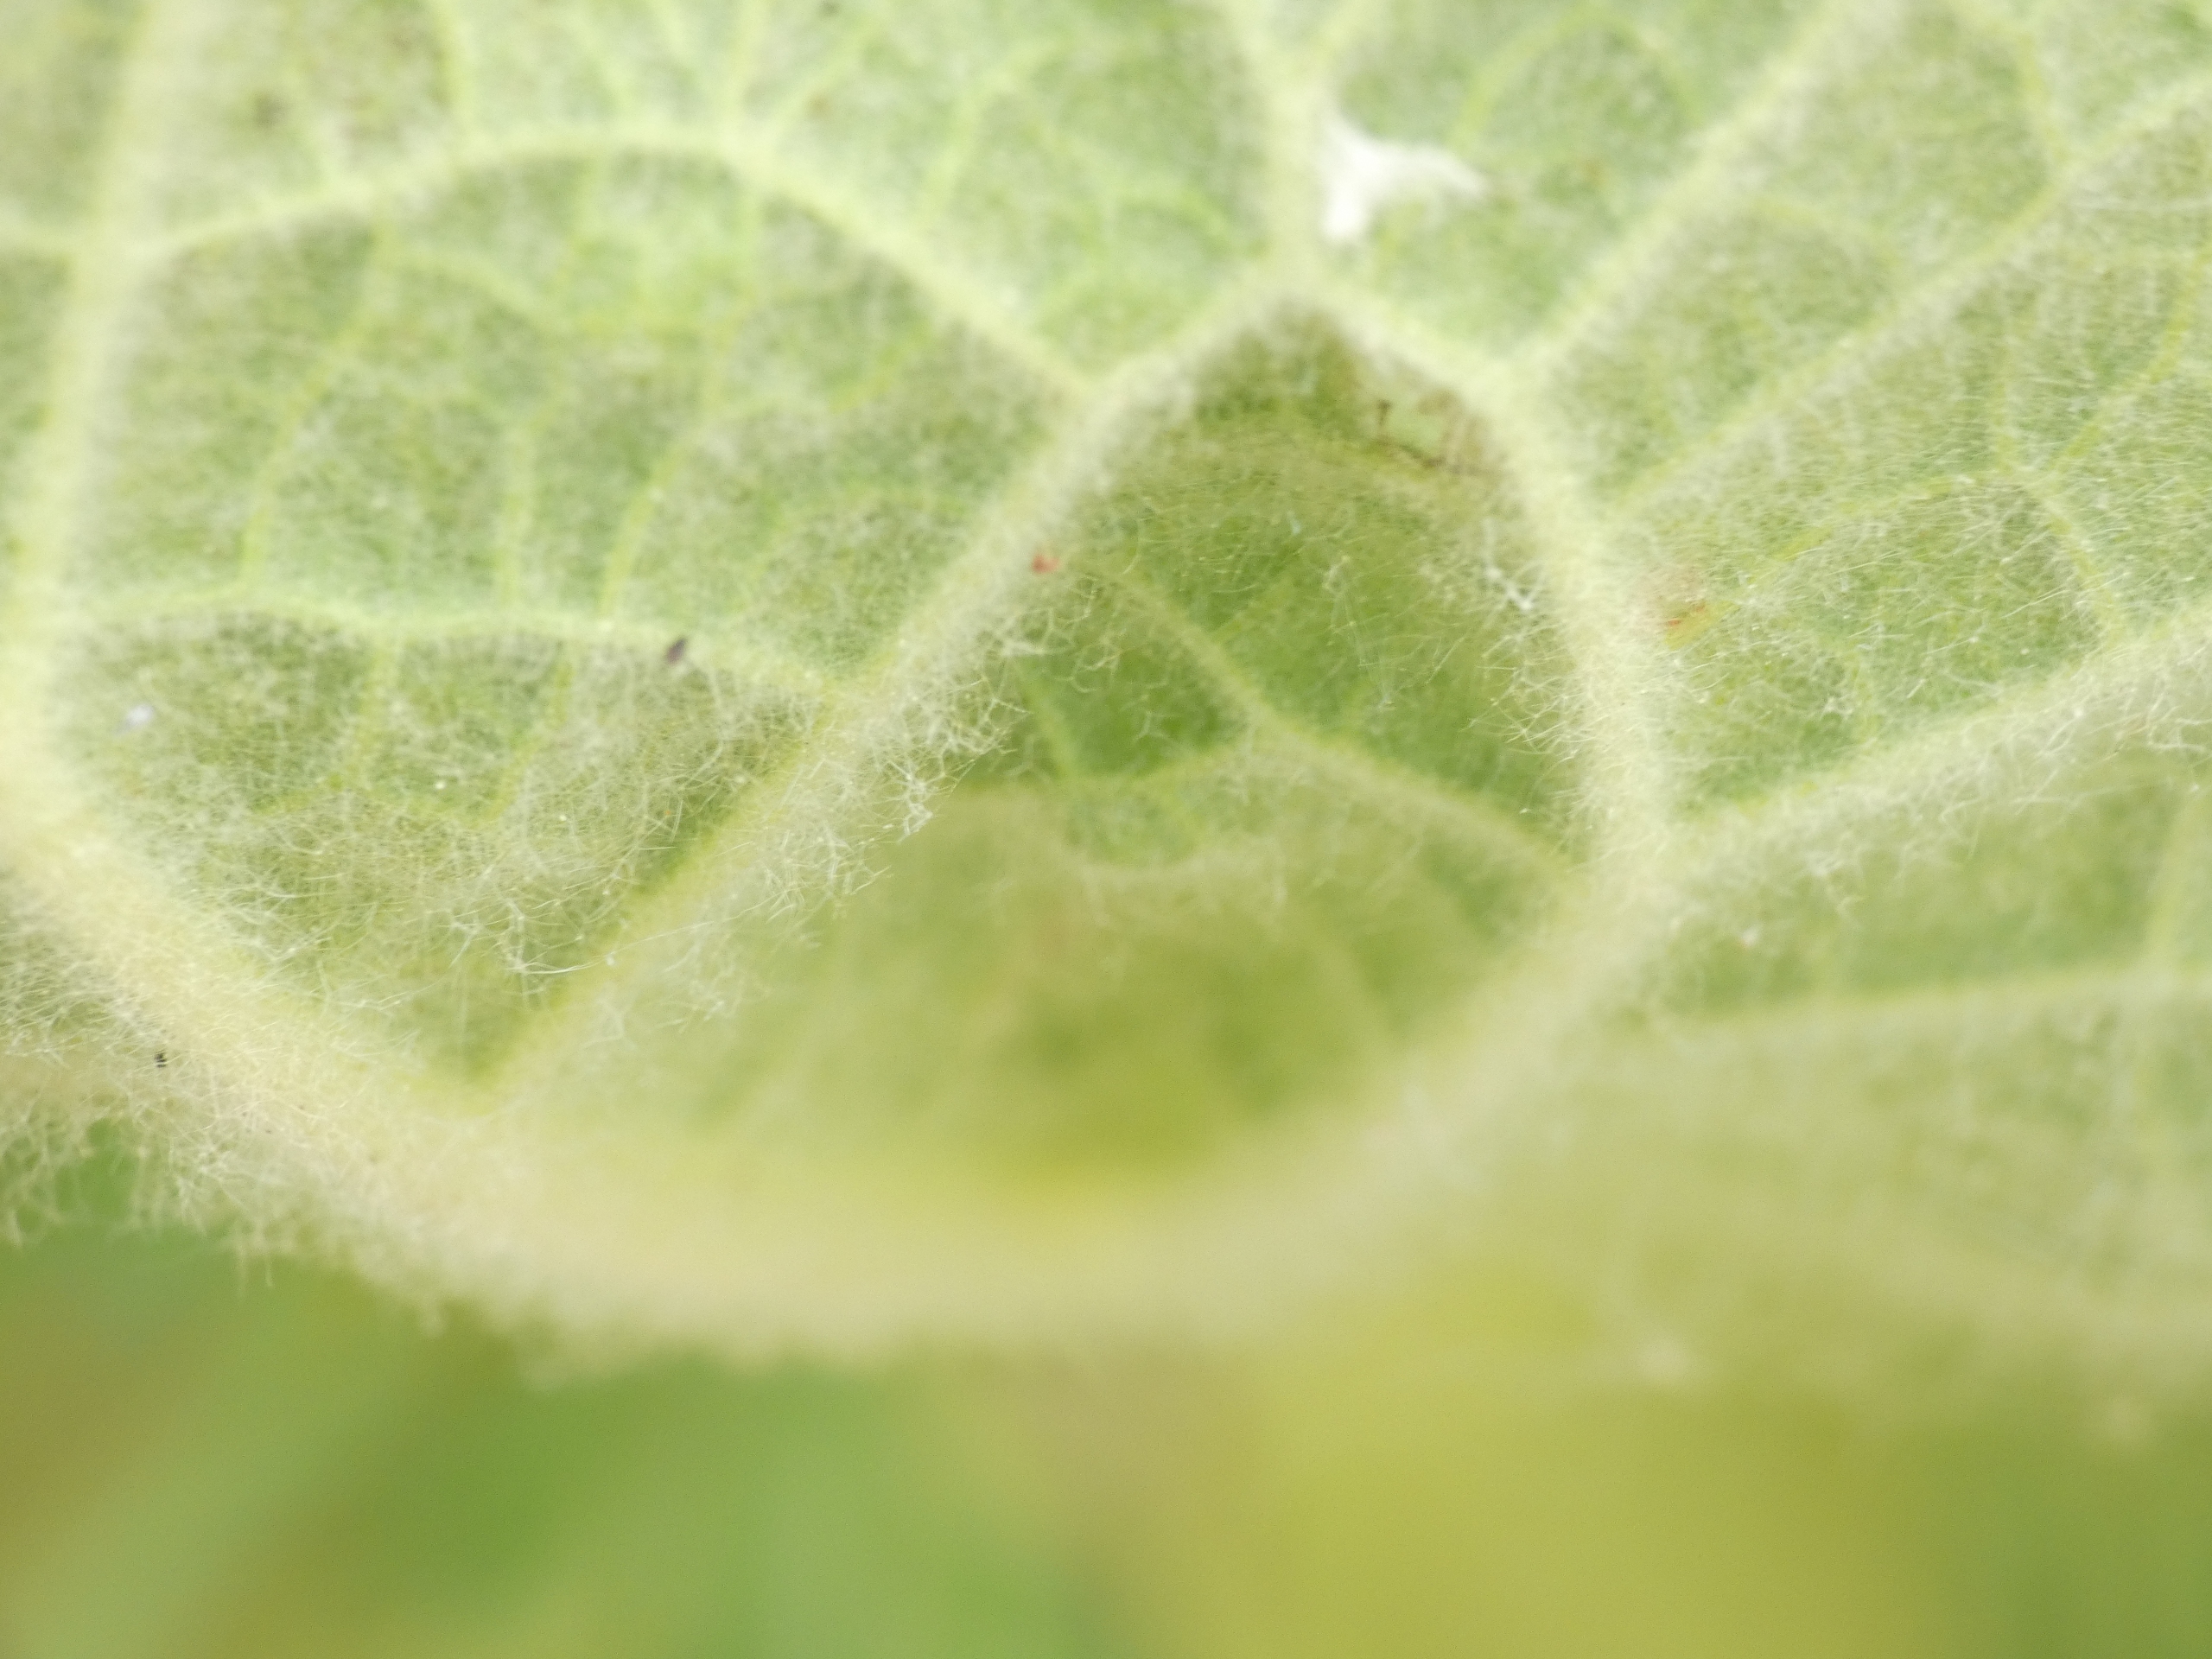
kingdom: Plantae
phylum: Tracheophyta
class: Magnoliopsida
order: Lamiales
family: Scrophulariaceae
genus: Verbascum
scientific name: Verbascum thapsus
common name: Filtbladet kongelys
